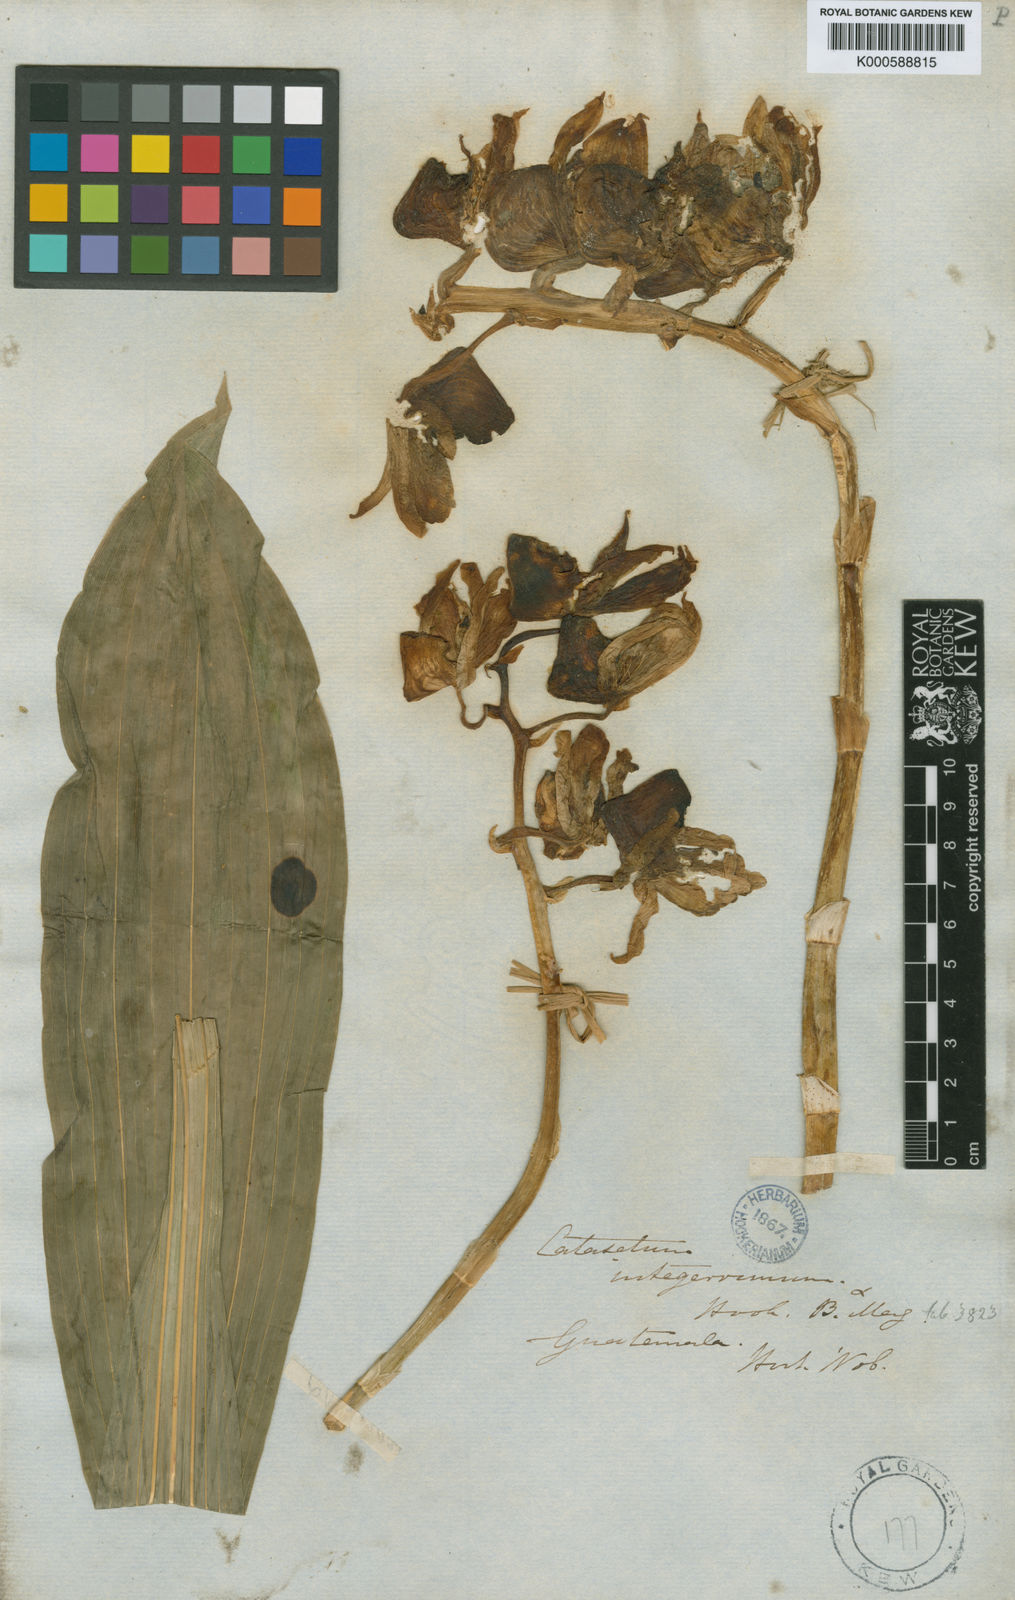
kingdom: Plantae
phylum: Tracheophyta
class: Liliopsida
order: Asparagales
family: Orchidaceae
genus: Catasetum
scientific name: Catasetum integerrimum
